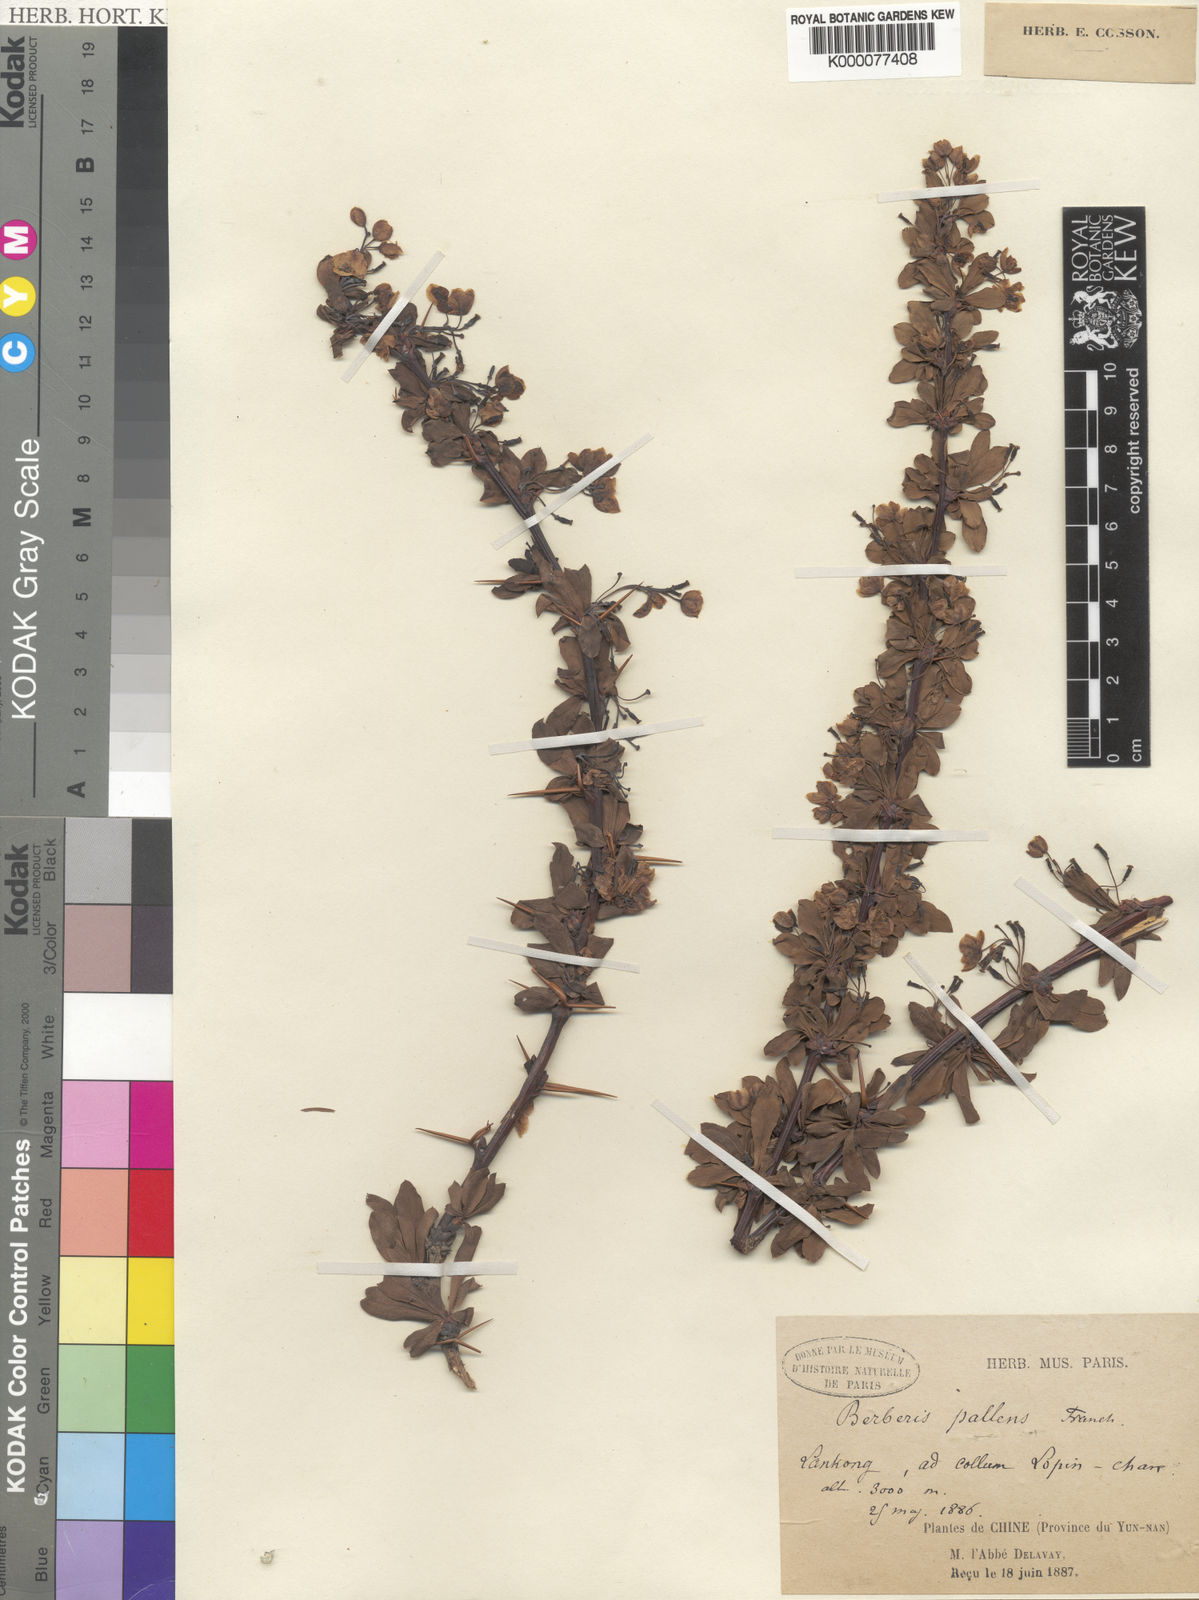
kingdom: Plantae
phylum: Tracheophyta
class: Magnoliopsida
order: Ranunculales
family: Berberidaceae
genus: Berberis
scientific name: Berberis pallens
